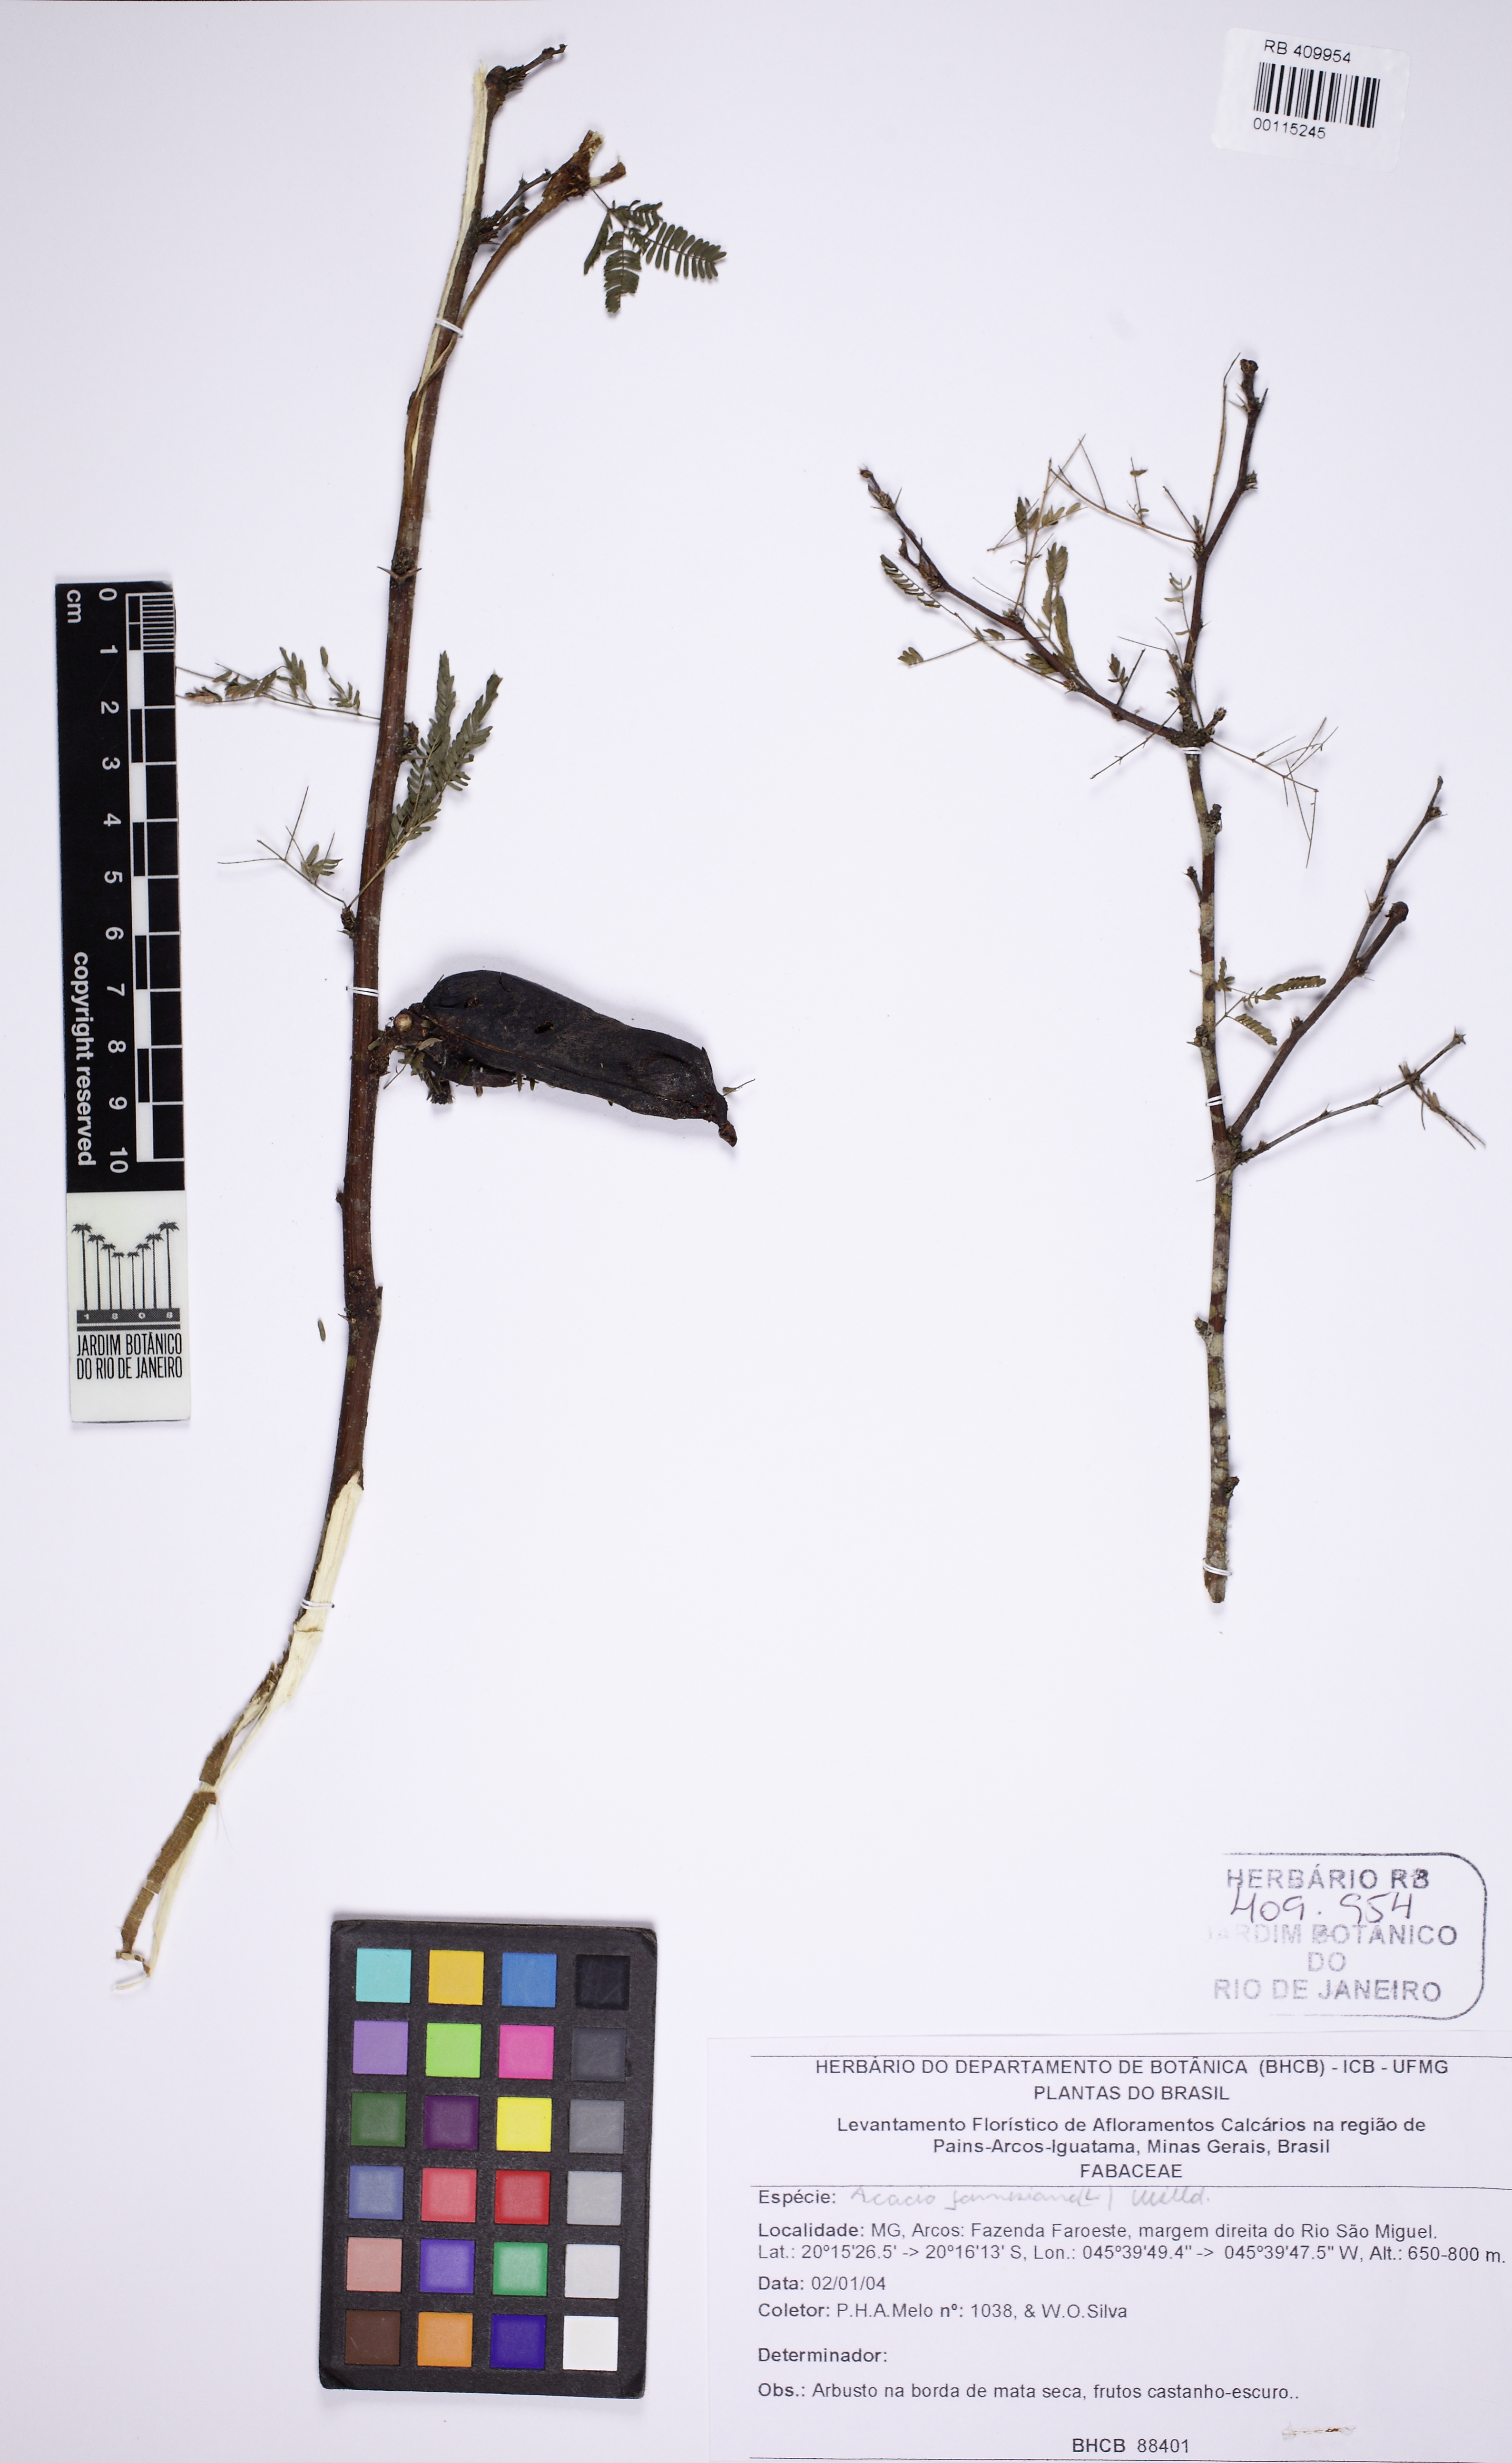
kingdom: Plantae
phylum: Tracheophyta
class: Magnoliopsida
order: Fabales
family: Fabaceae
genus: Vachellia
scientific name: Vachellia farnesiana
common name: Sweet acacia
